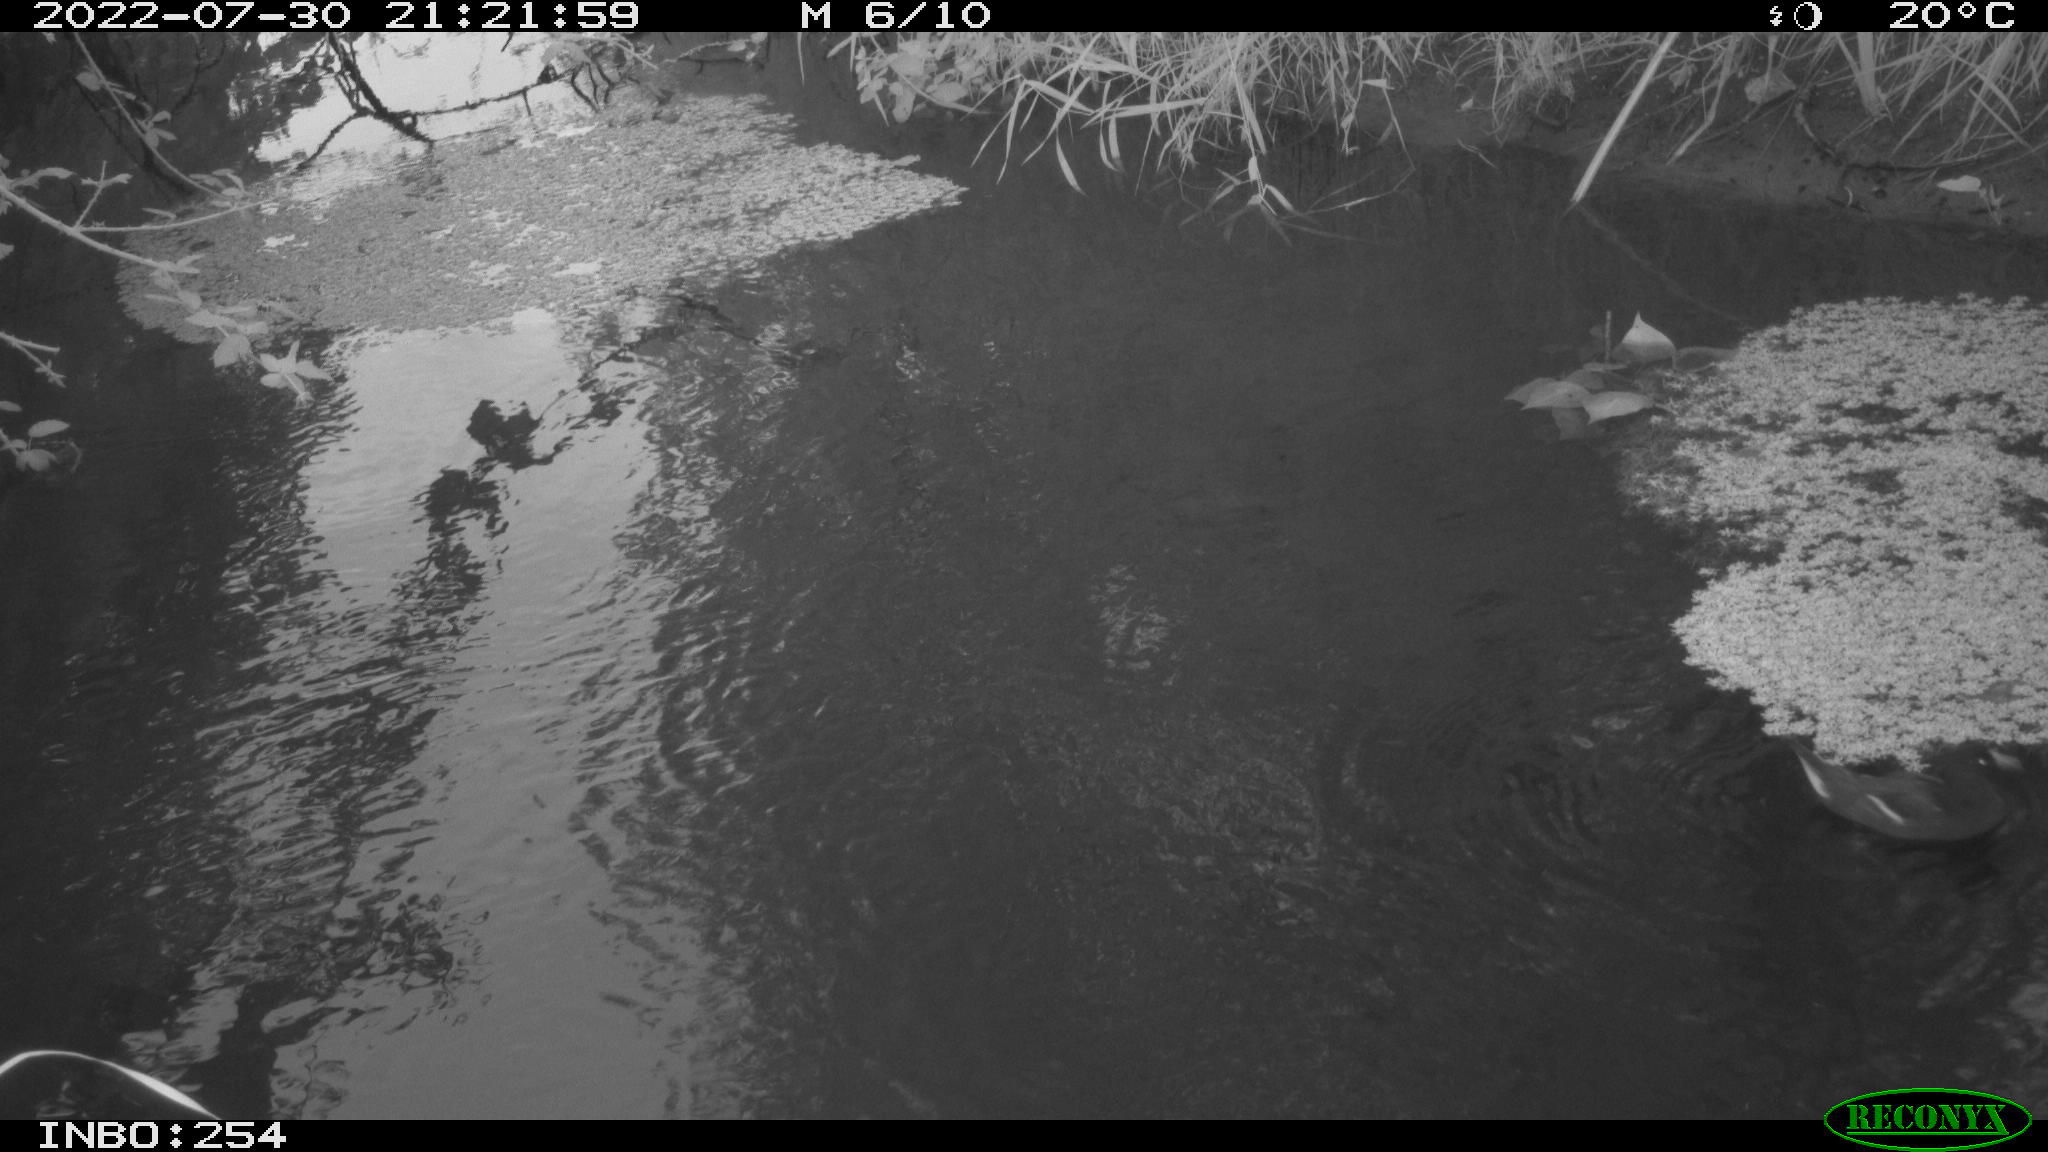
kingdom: Animalia
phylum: Chordata
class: Aves
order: Gruiformes
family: Rallidae
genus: Gallinula
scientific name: Gallinula chloropus
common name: Common moorhen
